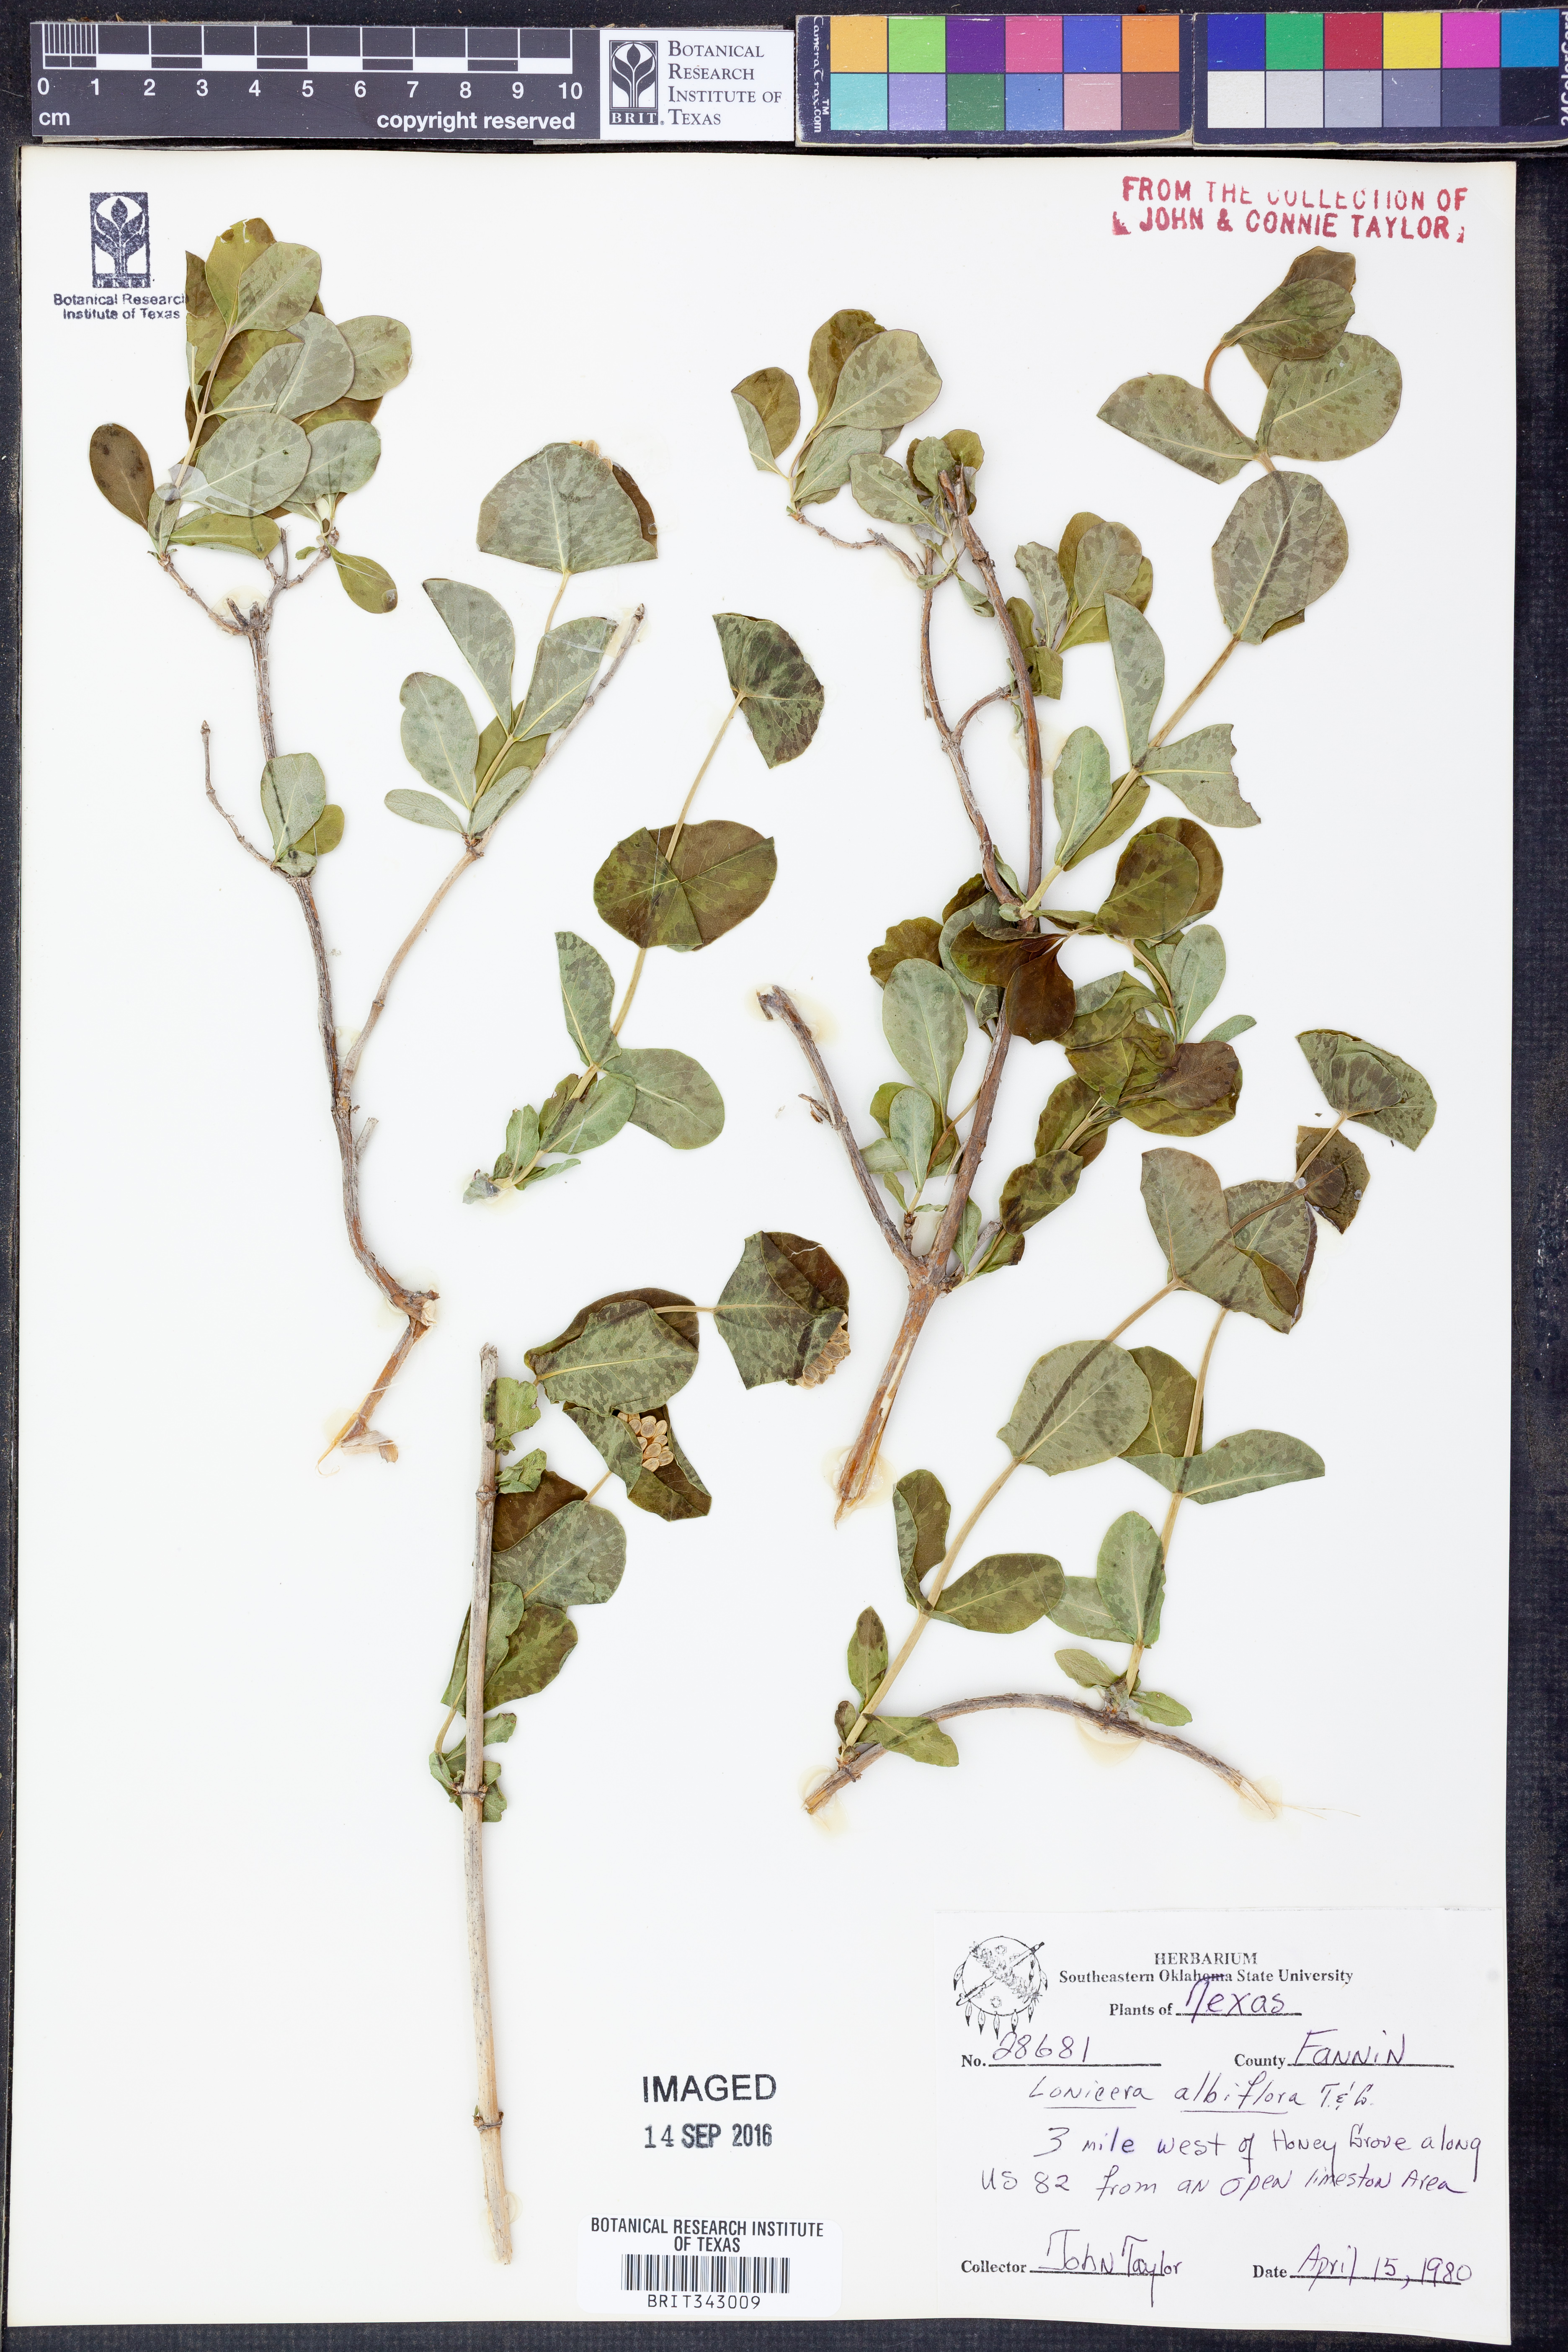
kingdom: Plantae
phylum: Tracheophyta
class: Magnoliopsida
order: Dipsacales
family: Caprifoliaceae
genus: Lonicera
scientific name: Lonicera albiflora
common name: White honeysuckle
